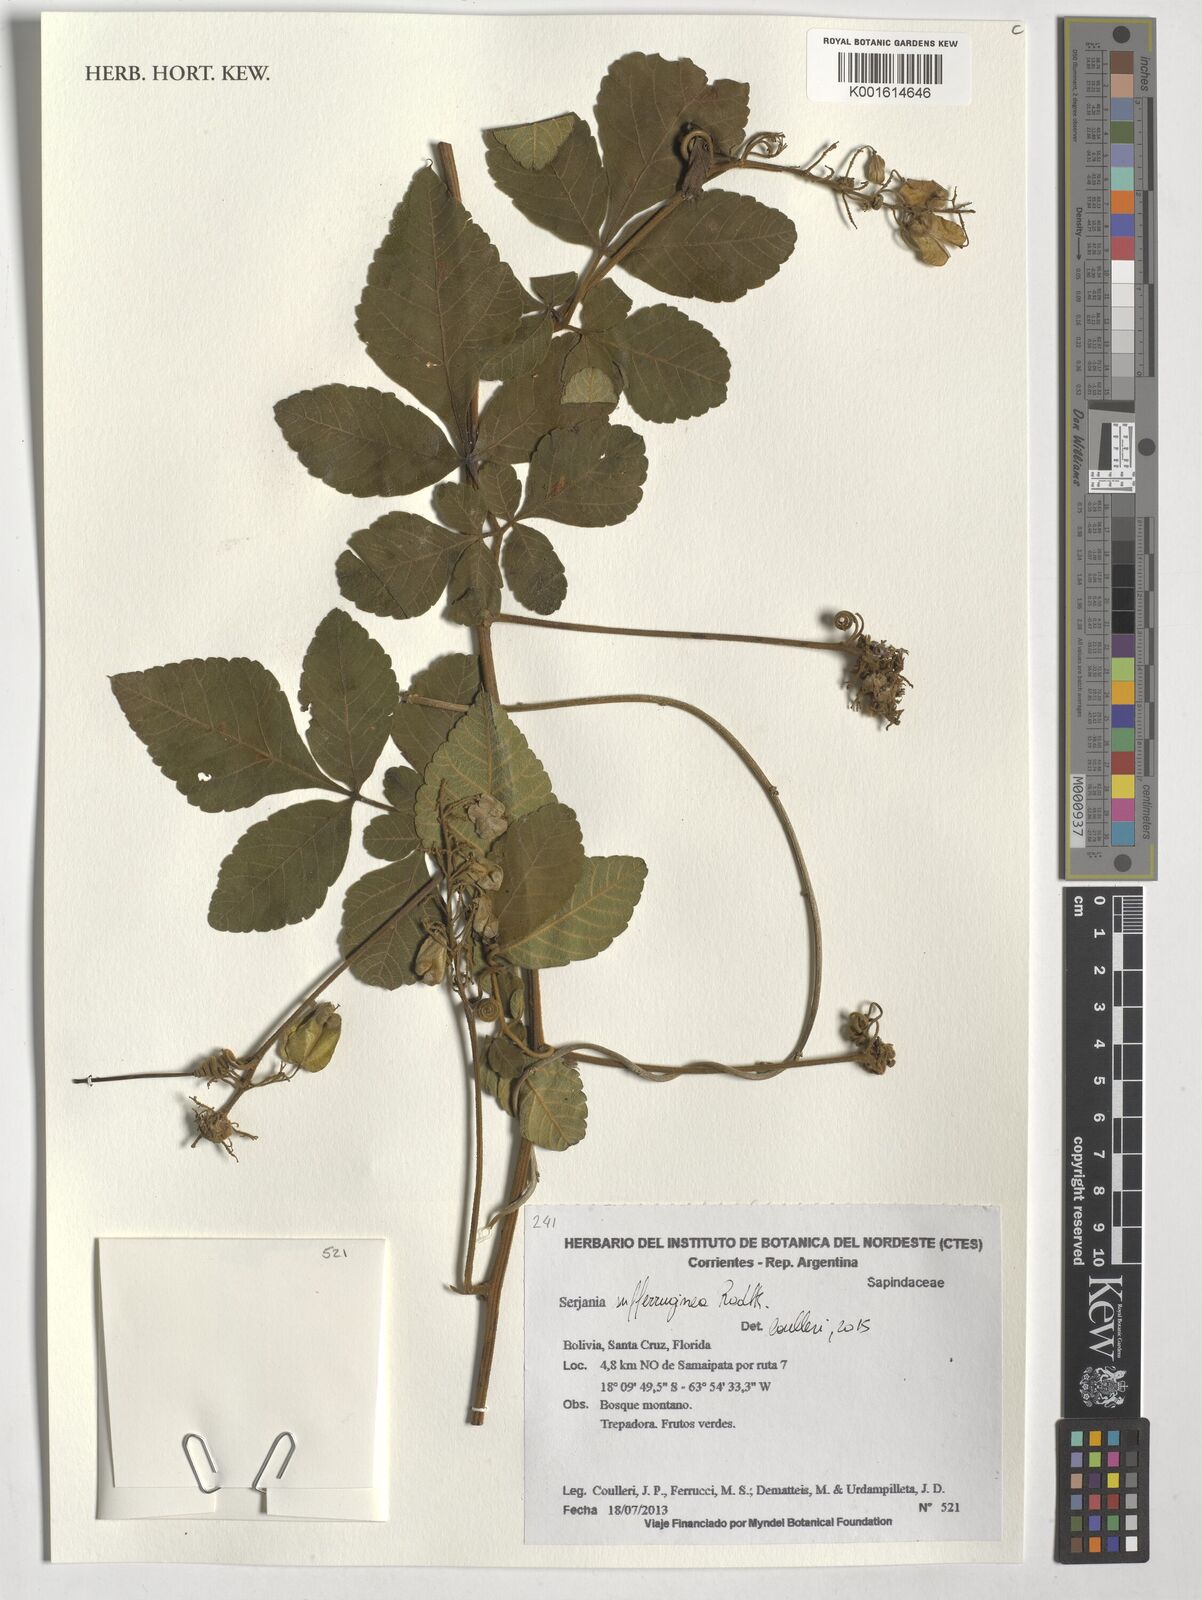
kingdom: Plantae
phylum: Tracheophyta
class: Magnoliopsida
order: Sapindales
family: Sapindaceae
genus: Serjania
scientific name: Serjania sufferruginea
